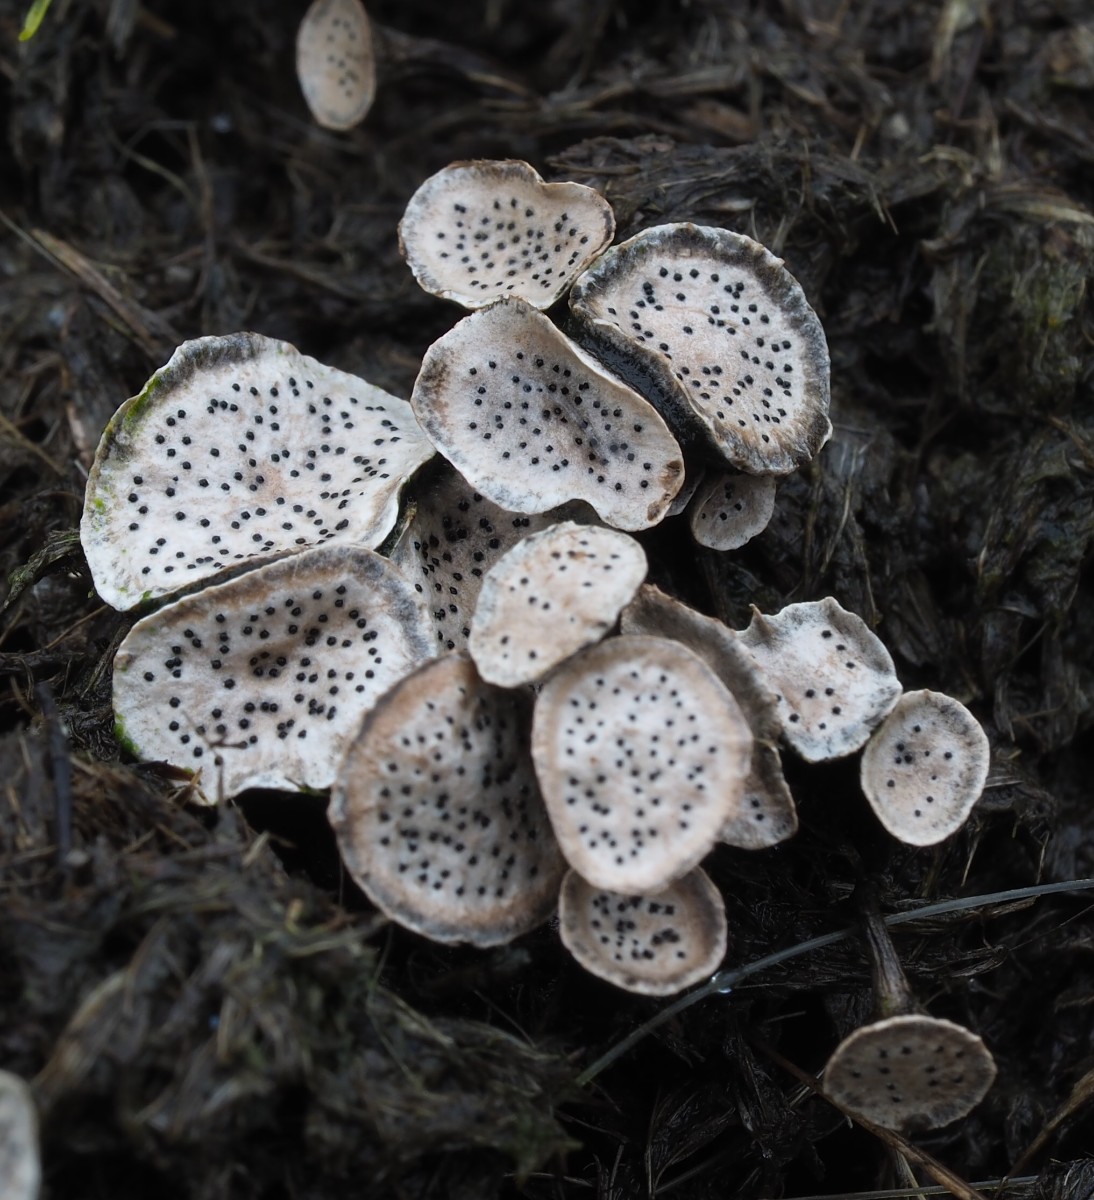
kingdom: Fungi
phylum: Ascomycota
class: Sordariomycetes
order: Xylariales
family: Xylariaceae
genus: Poronia
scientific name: Poronia punctata
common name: stor priksvamp
